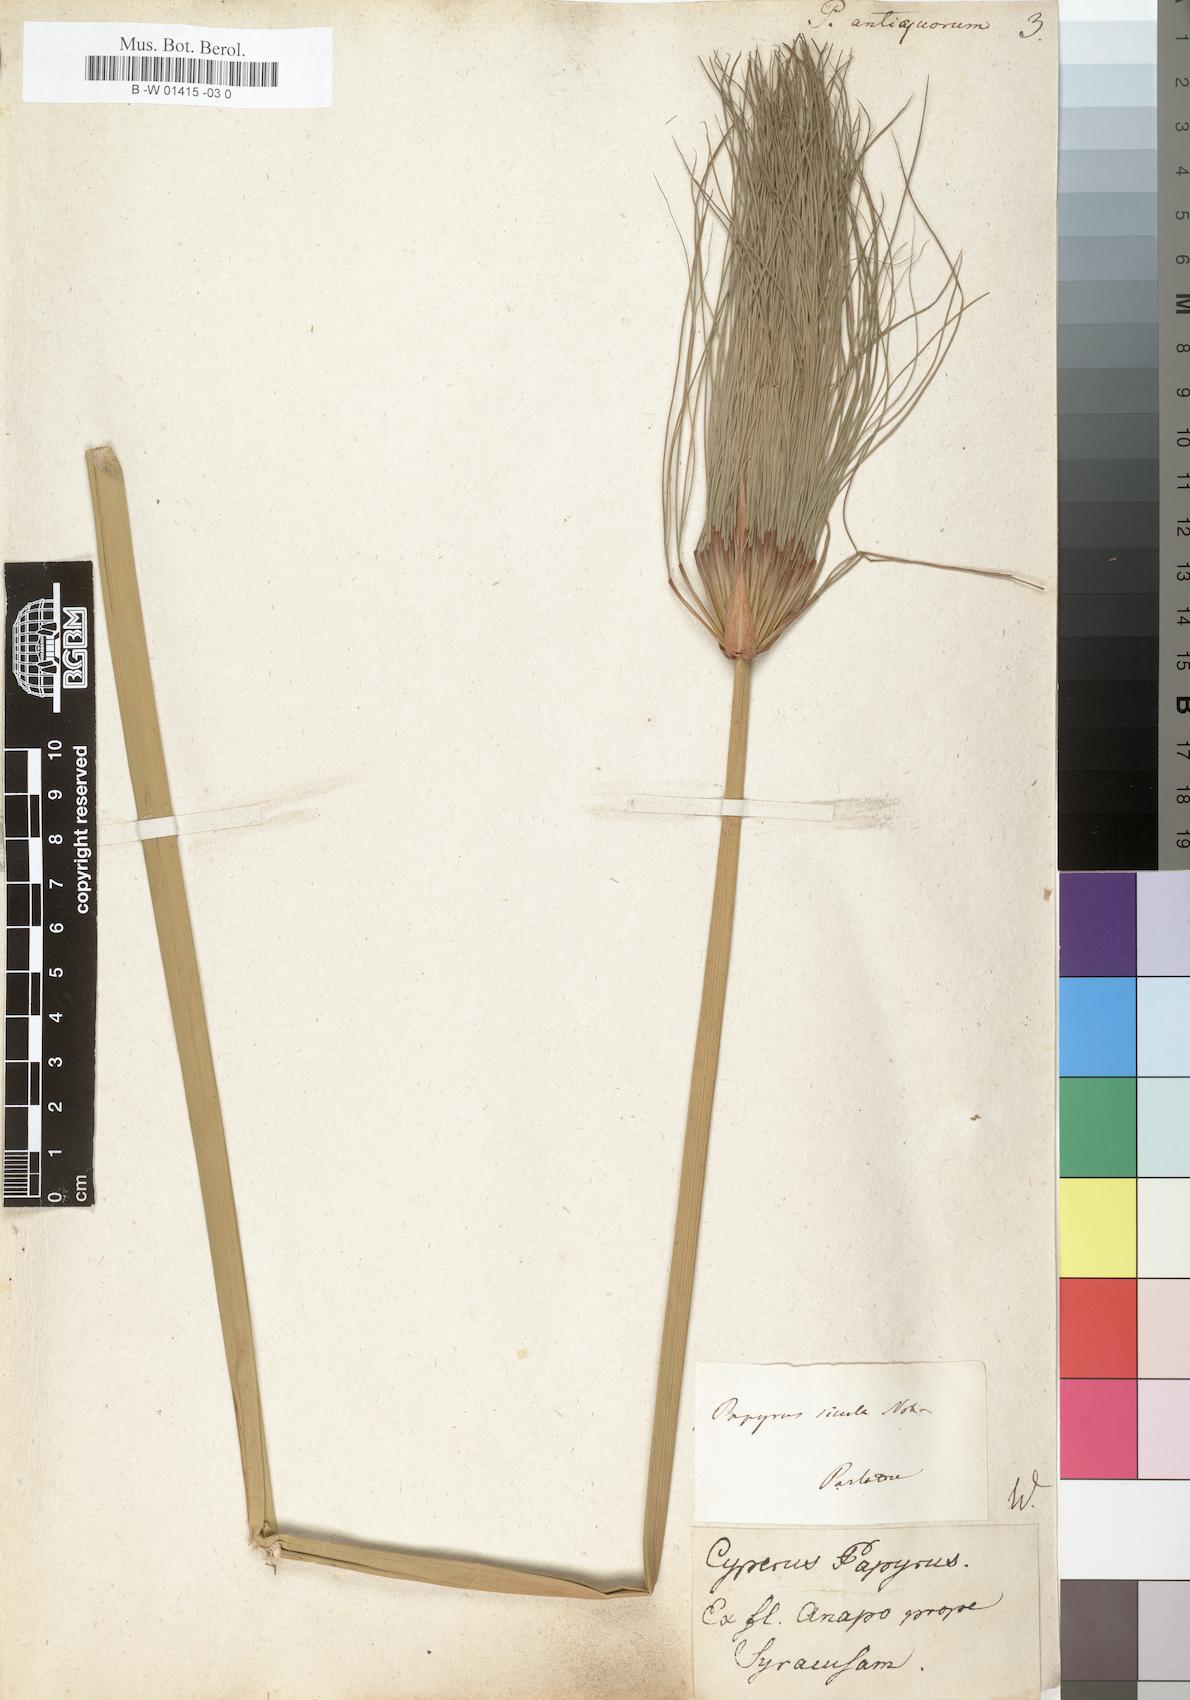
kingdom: Plantae
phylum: Tracheophyta
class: Liliopsida
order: Poales
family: Cyperaceae
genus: Cyperus
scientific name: Cyperus papyrus
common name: Papyrus
